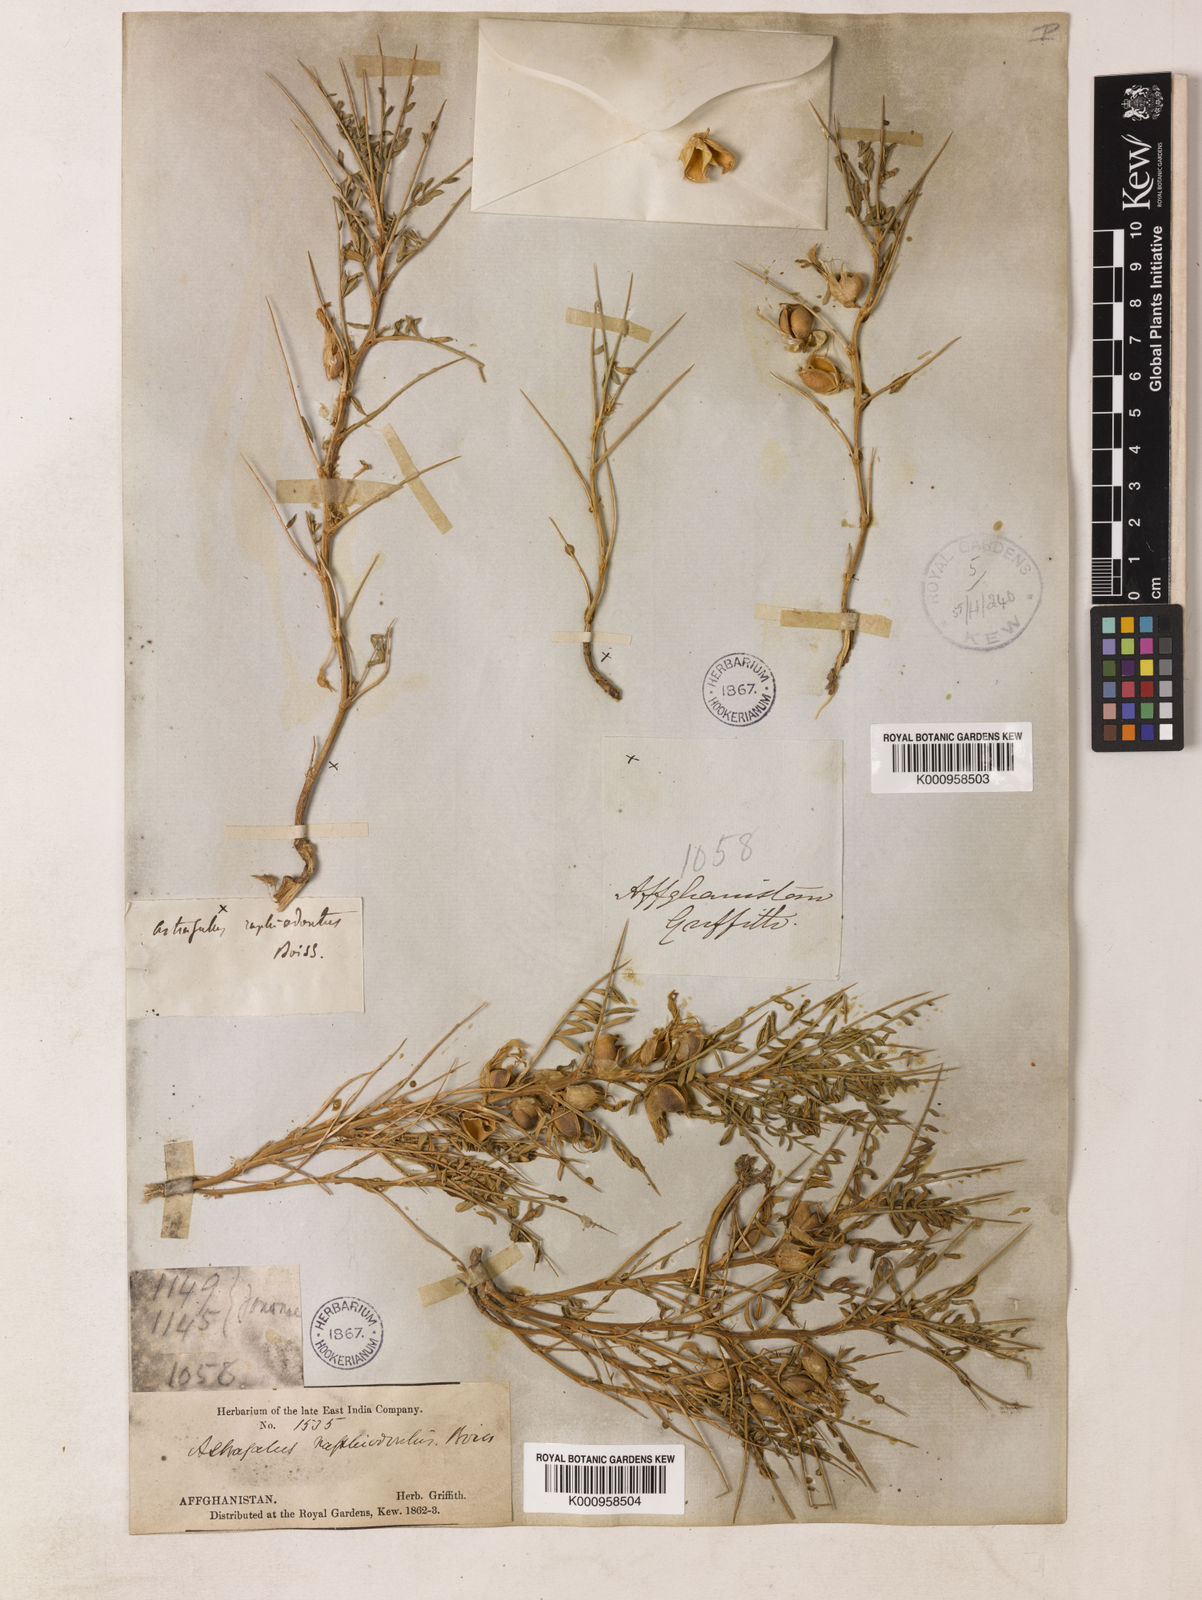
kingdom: Plantae
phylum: Tracheophyta
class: Magnoliopsida
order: Fabales
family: Fabaceae
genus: Astragalus
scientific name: Astragalus raphiodontus
